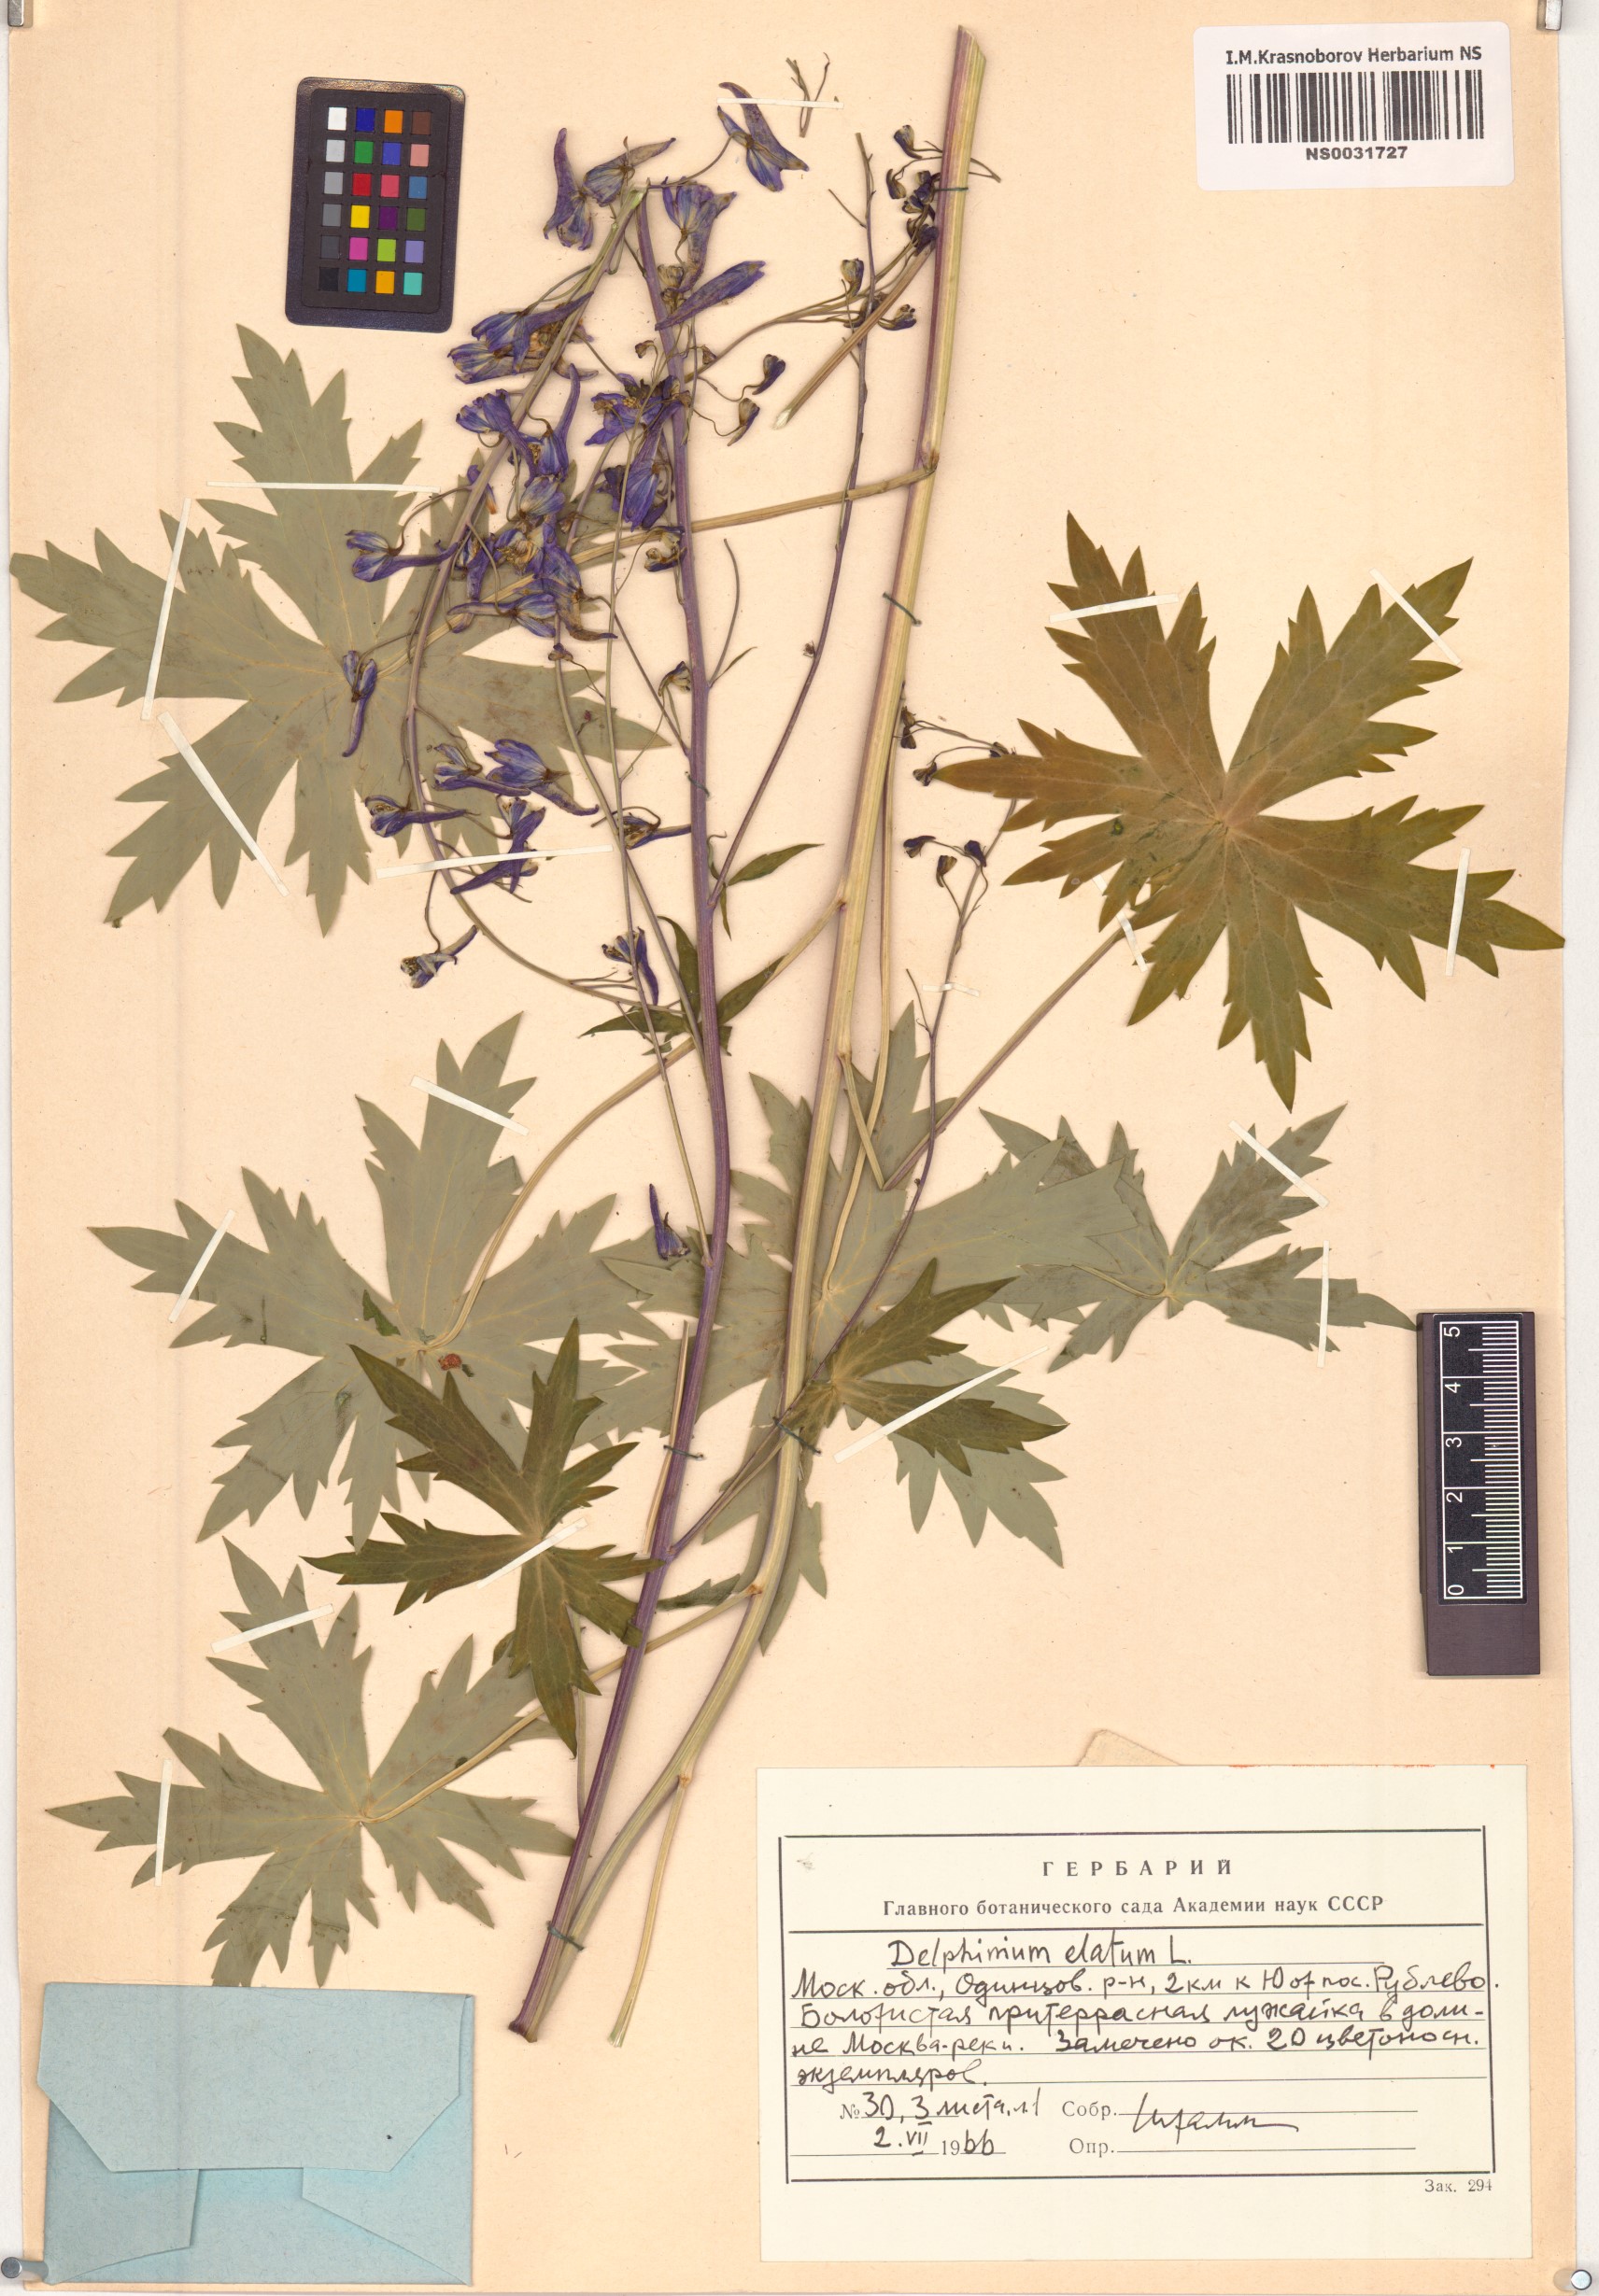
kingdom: Plantae
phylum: Tracheophyta
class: Magnoliopsida
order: Ranunculales
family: Ranunculaceae
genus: Delphinium
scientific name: Delphinium elatum
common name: Candle larkspur
